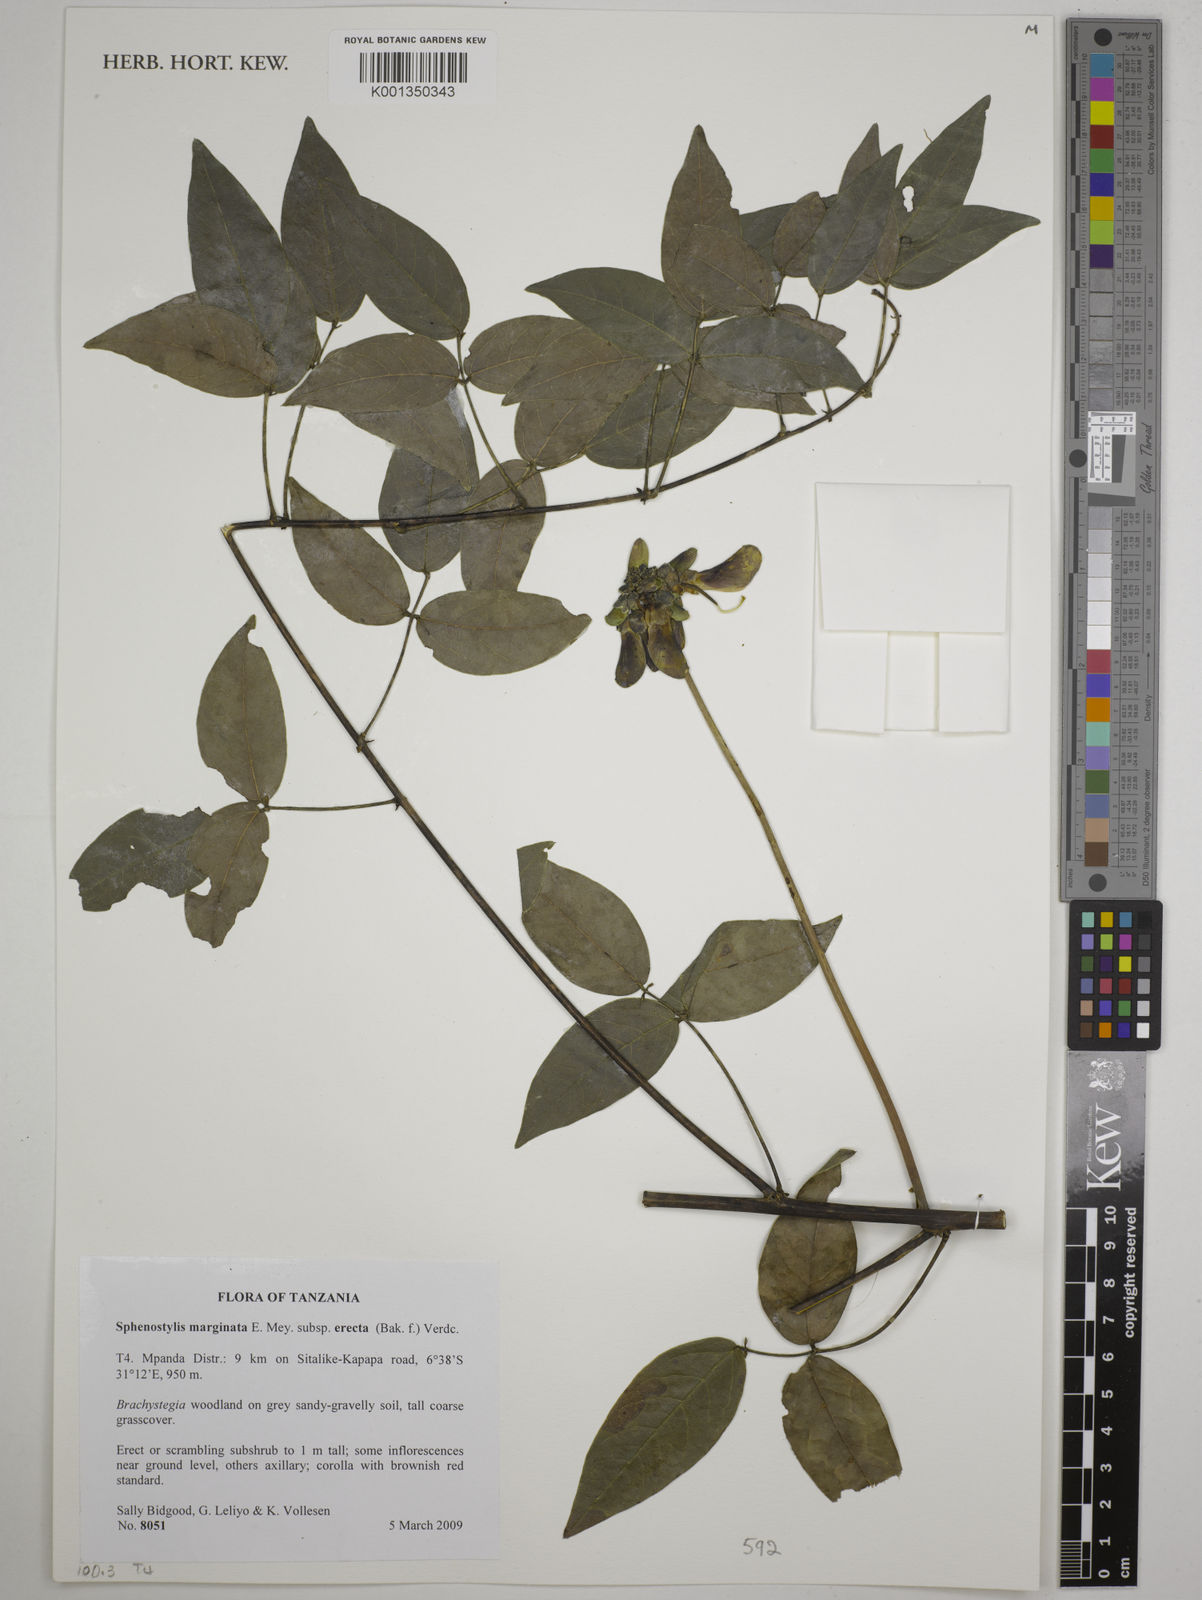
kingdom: Plantae
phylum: Tracheophyta
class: Magnoliopsida
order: Fabales
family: Fabaceae
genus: Sphenostylis
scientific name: Sphenostylis
